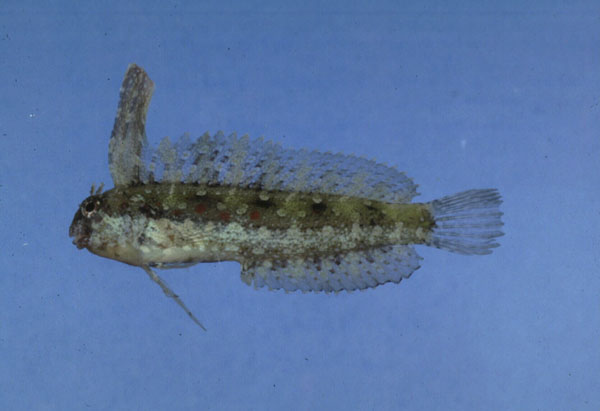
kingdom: Animalia
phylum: Chordata
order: Perciformes
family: Blenniidae
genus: Petroscirtes
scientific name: Petroscirtes mitratus
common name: Floral blenny
